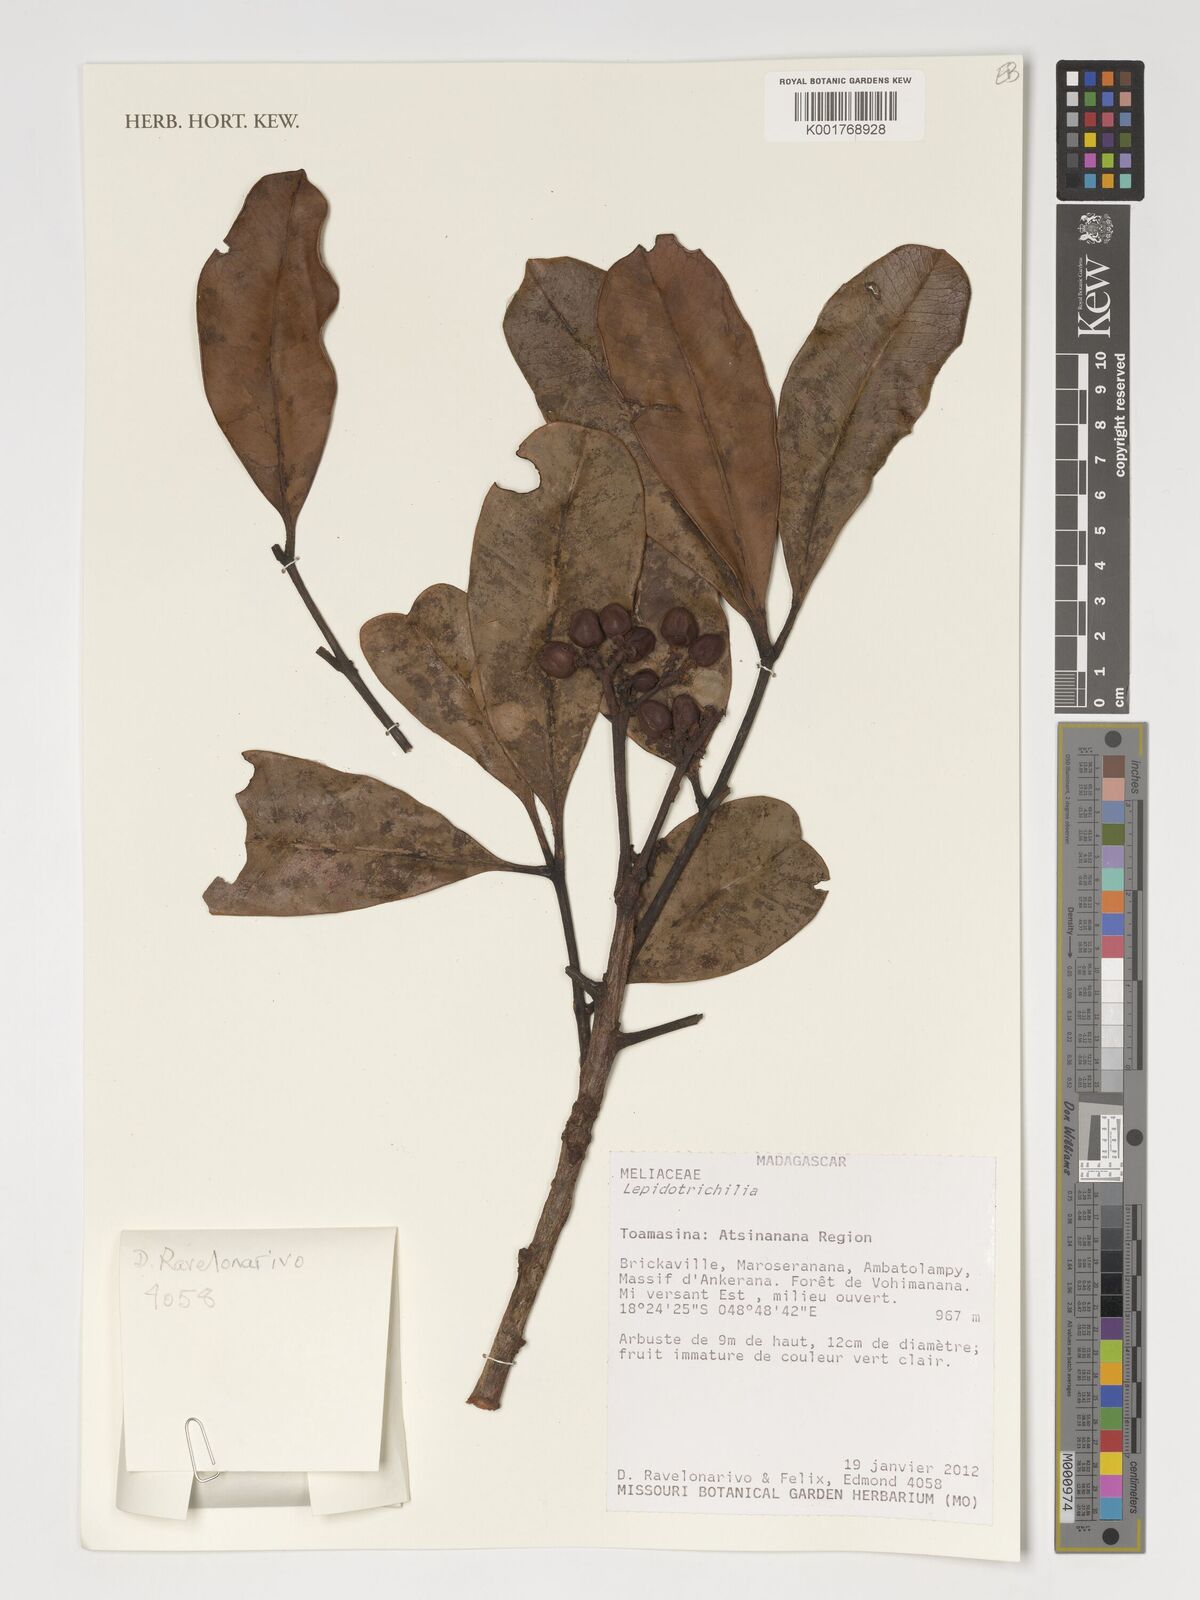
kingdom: Plantae
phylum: Tracheophyta
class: Magnoliopsida
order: Sapindales
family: Meliaceae
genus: Lepidotrichilia
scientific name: Lepidotrichilia
